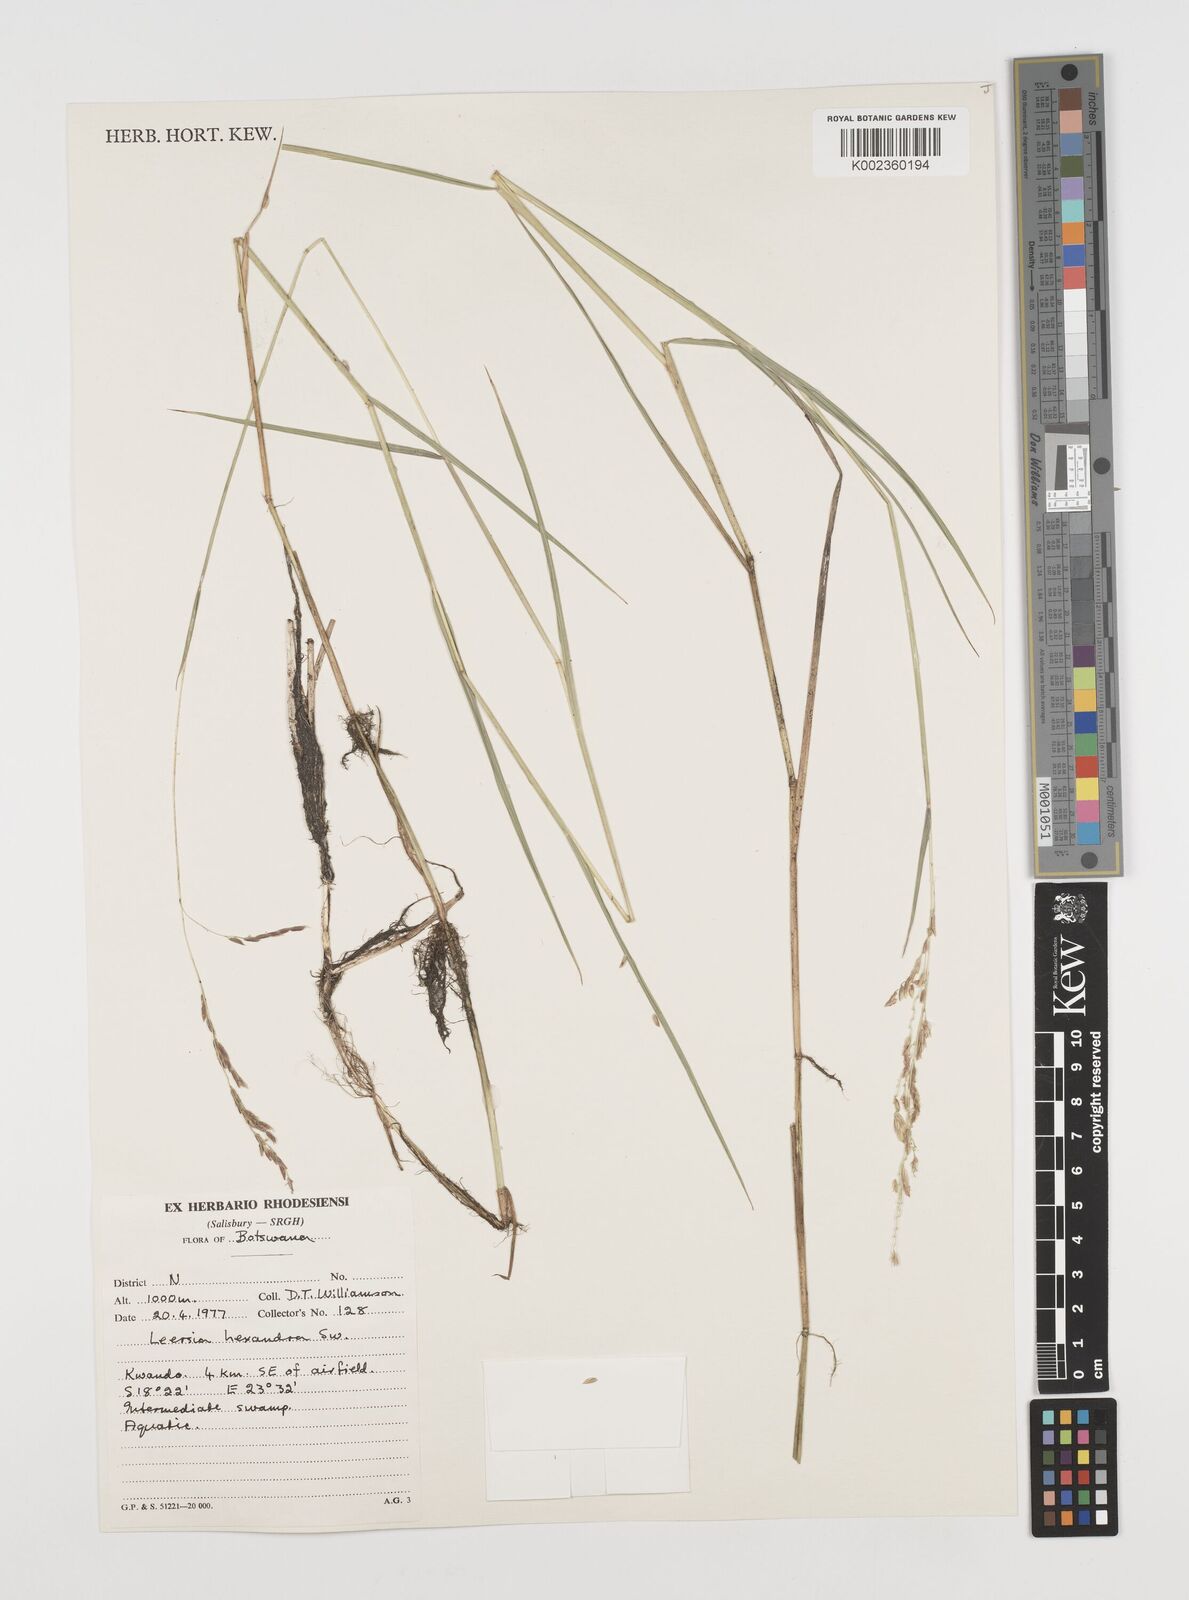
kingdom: Plantae
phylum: Tracheophyta
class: Liliopsida
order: Poales
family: Poaceae
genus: Leersia
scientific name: Leersia hexandra
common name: Southern cut grass
